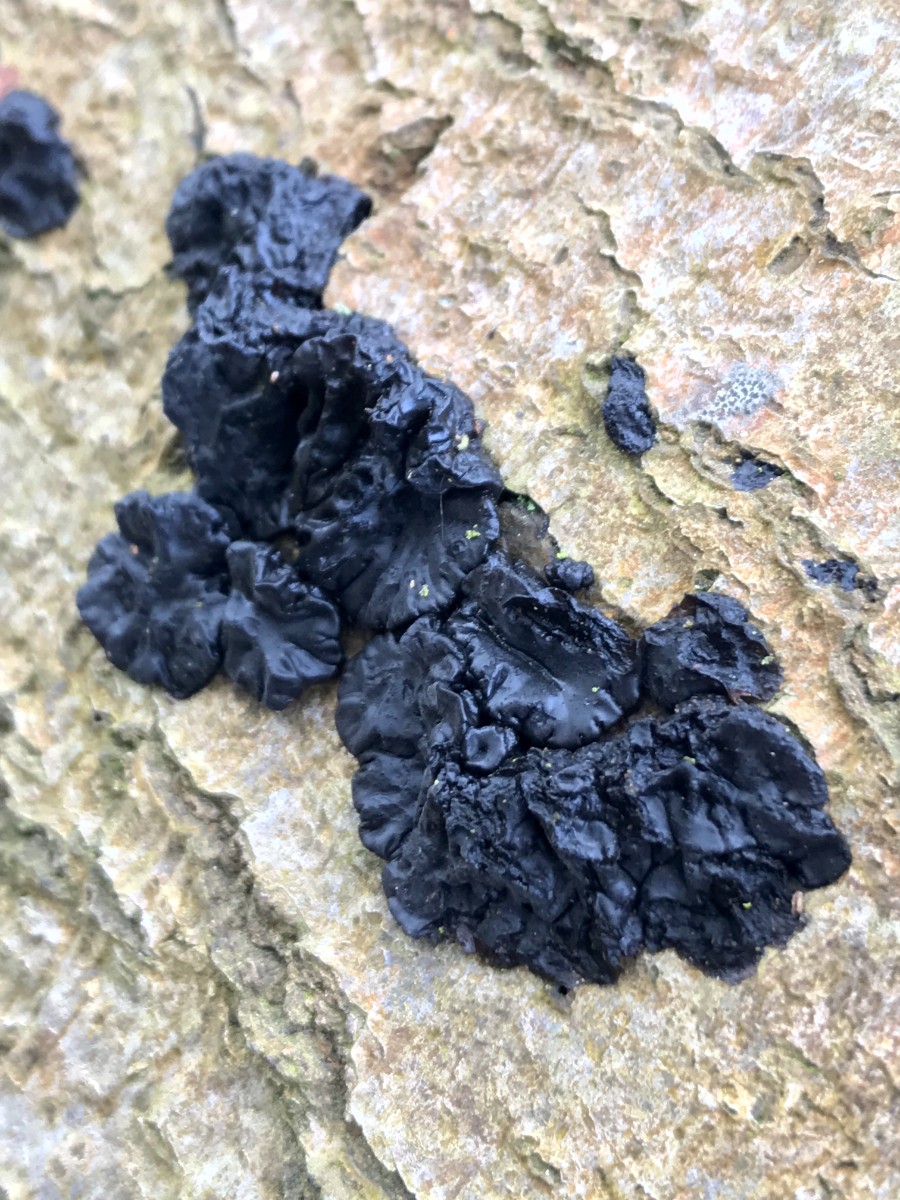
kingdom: Fungi
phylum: Basidiomycota
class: Agaricomycetes
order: Auriculariales
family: Auriculariaceae
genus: Exidia
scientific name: Exidia nigricans
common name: almindelig bævretop
